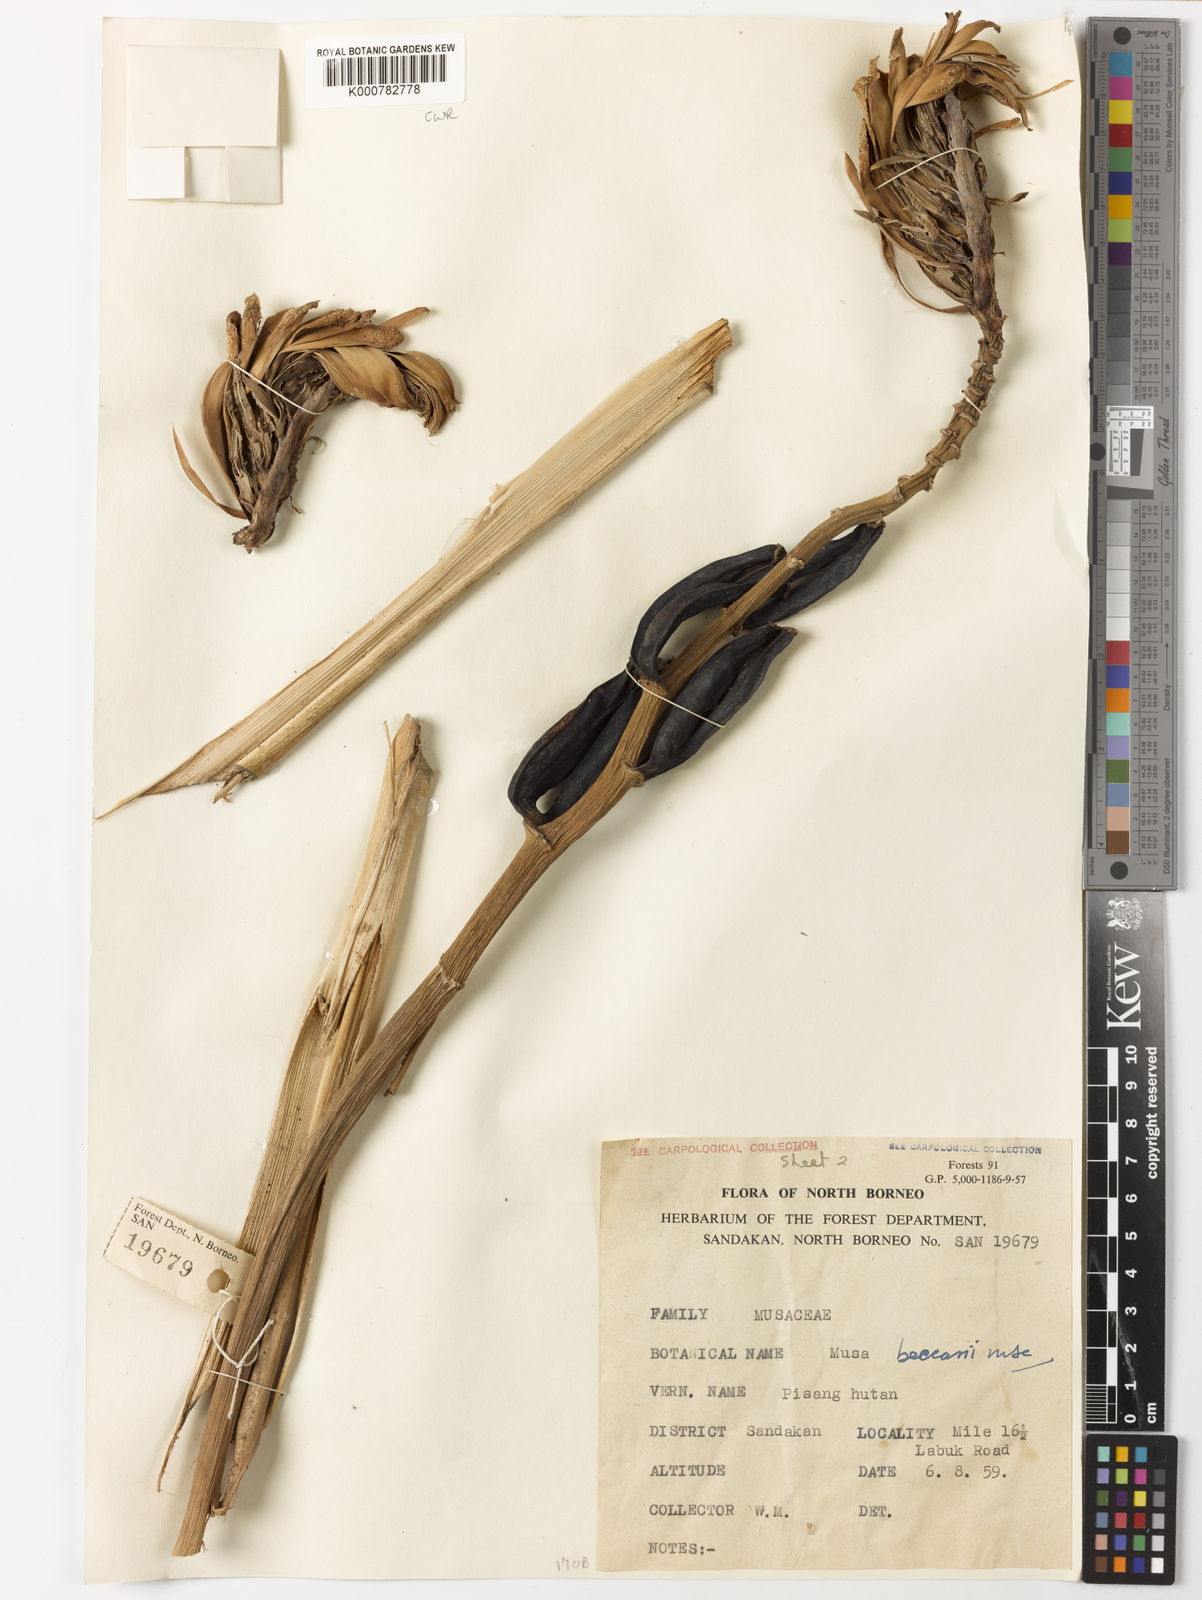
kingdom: Plantae
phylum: Tracheophyta
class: Liliopsida
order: Zingiberales
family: Musaceae
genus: Musa
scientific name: Musa
